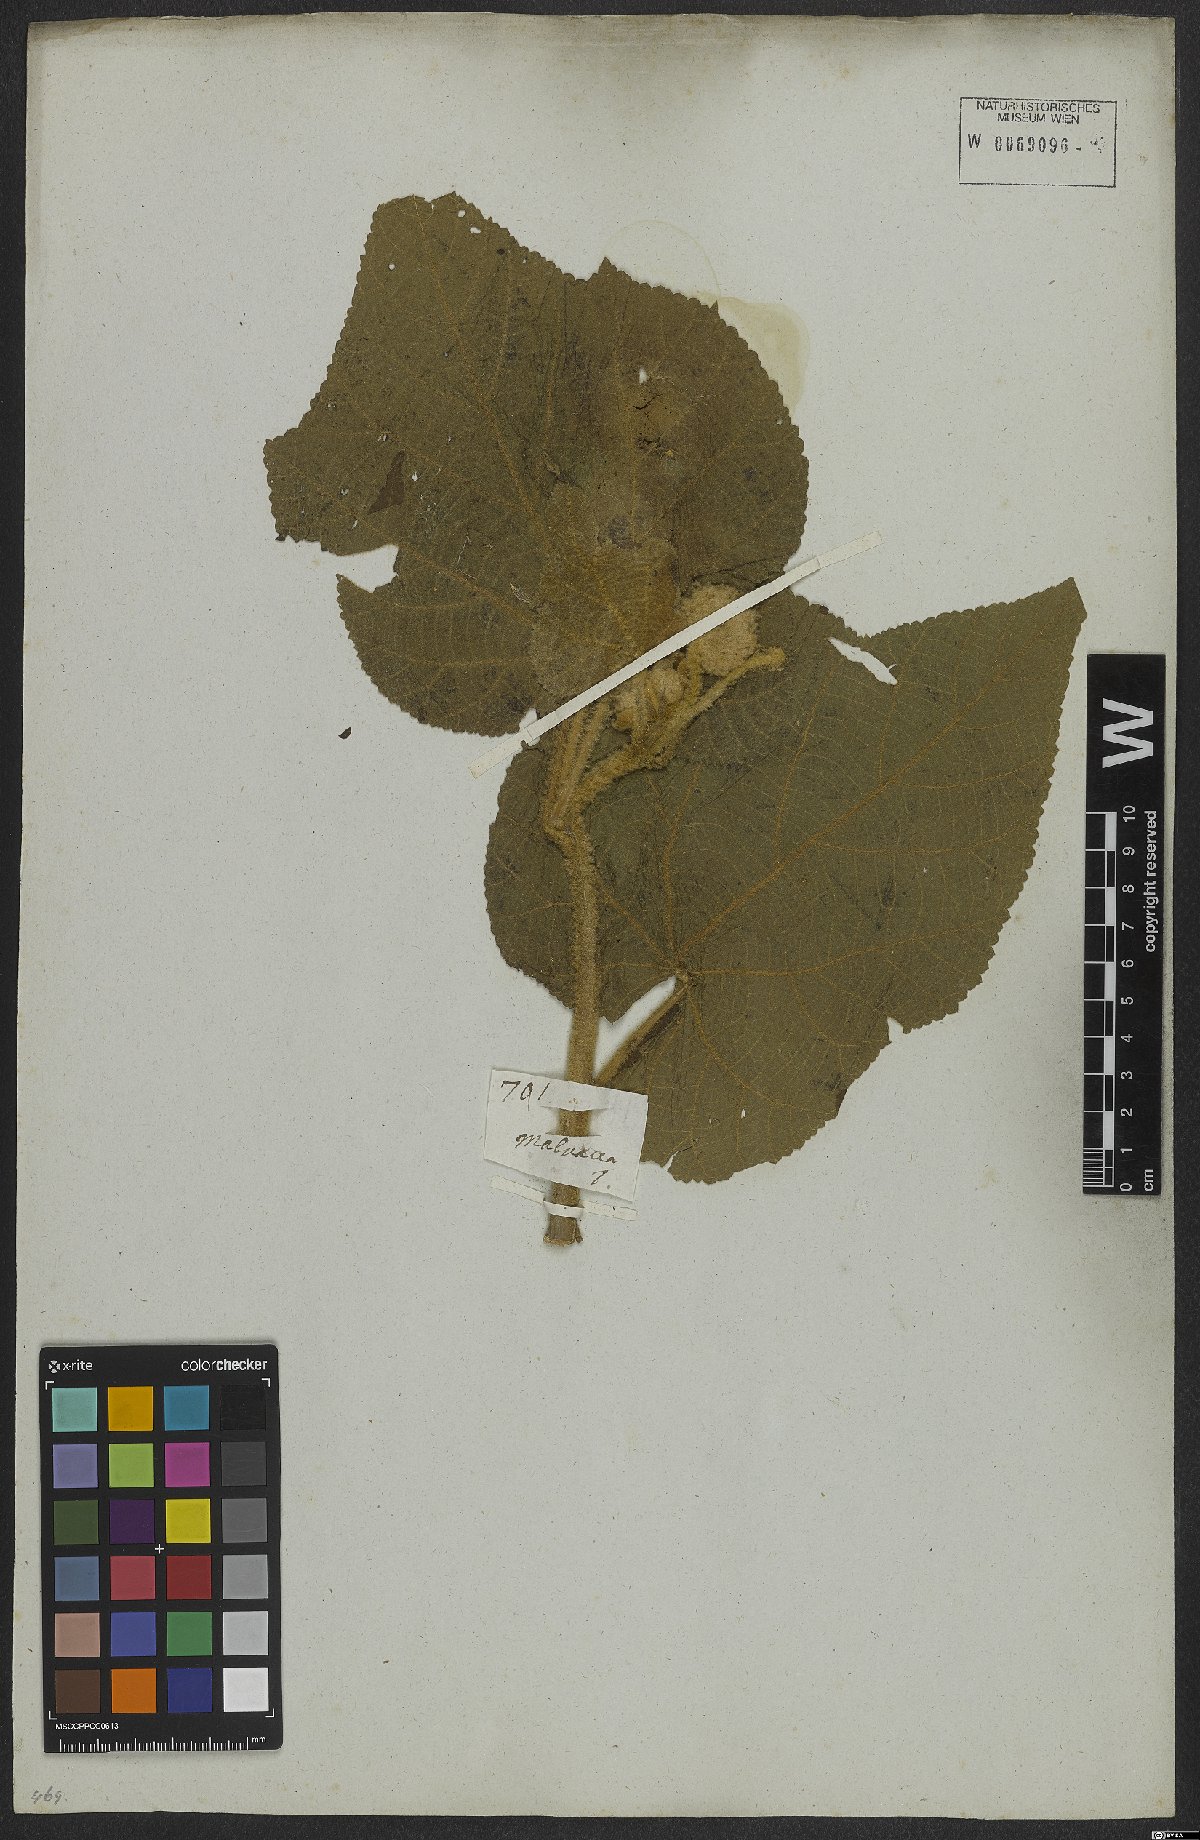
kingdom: Plantae
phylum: Tracheophyta
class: Magnoliopsida
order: Malvales
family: Malvaceae
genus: Callianthe
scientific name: Callianthe lanata
